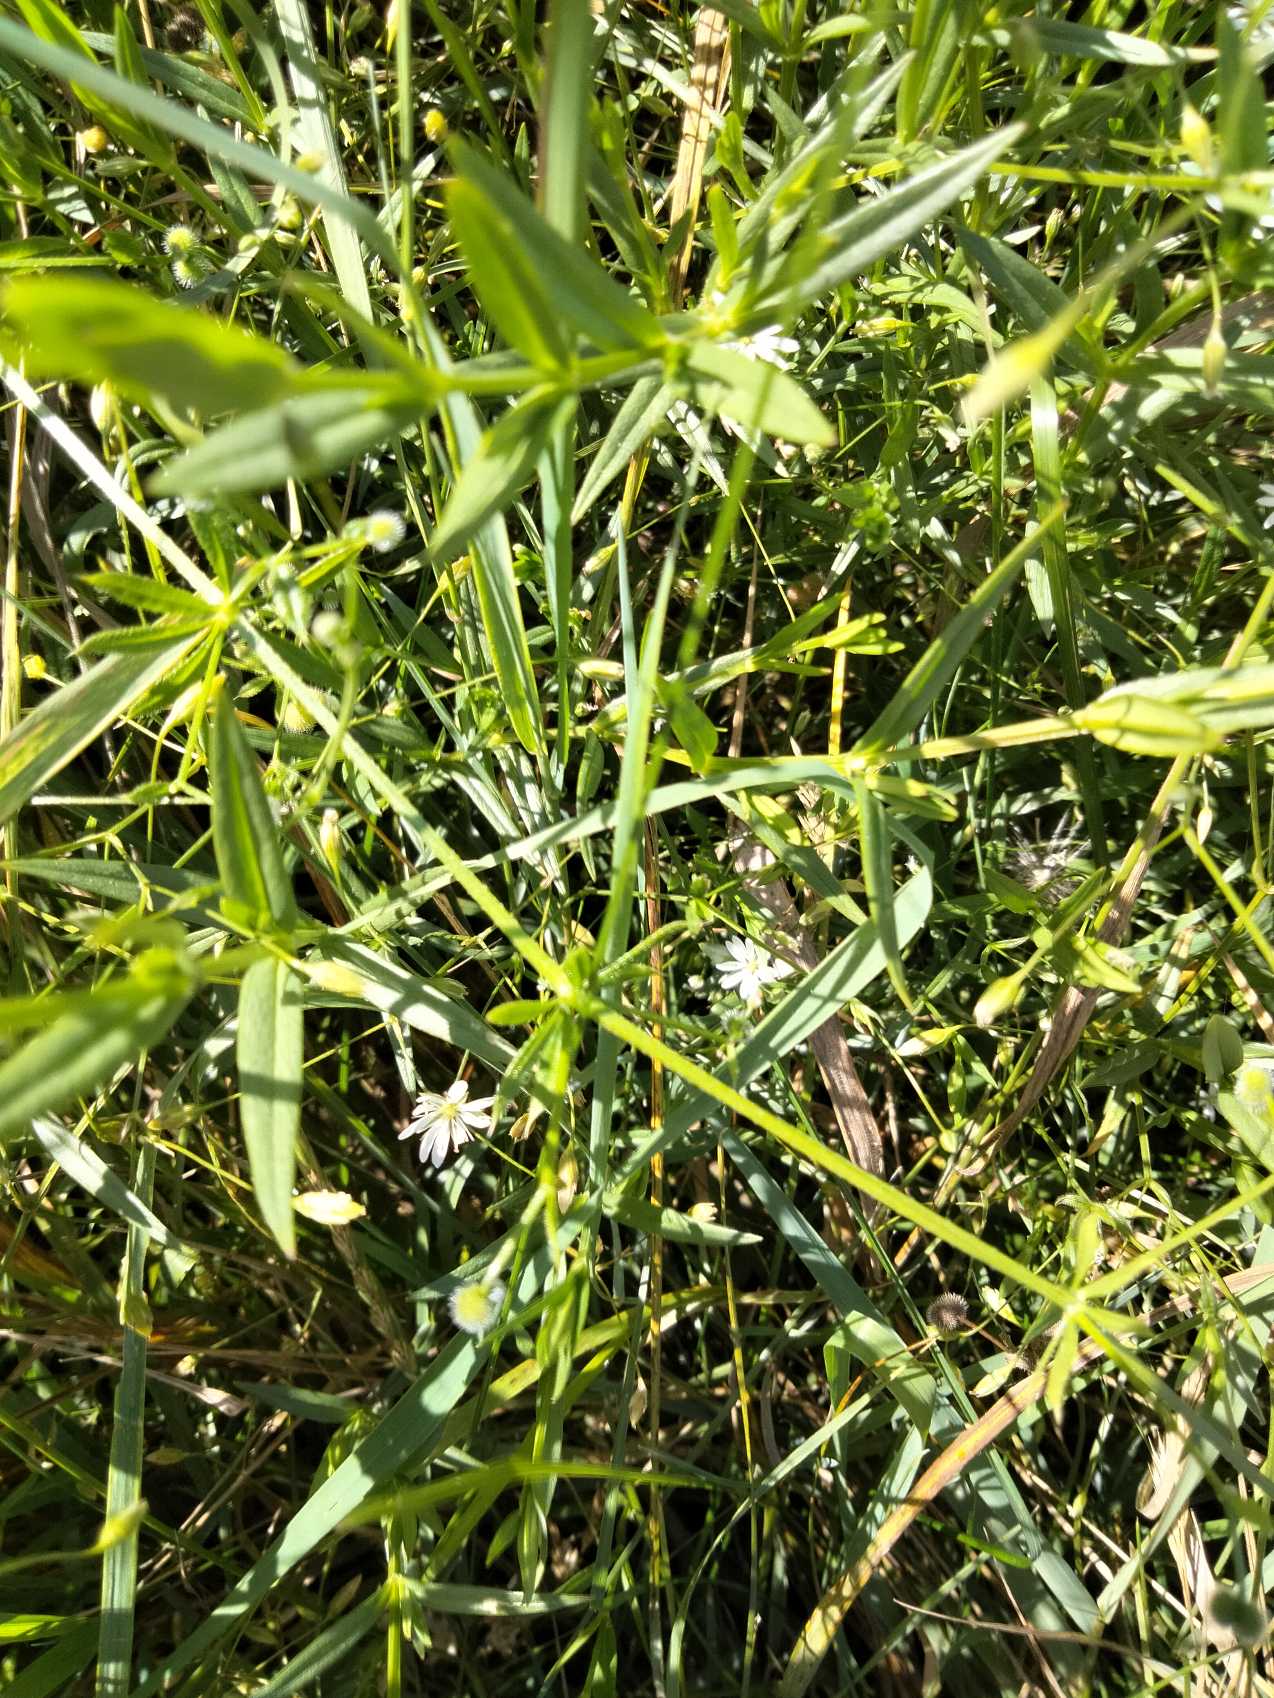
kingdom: Plantae
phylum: Tracheophyta
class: Magnoliopsida
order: Caryophyllales
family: Caryophyllaceae
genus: Stellaria
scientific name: Stellaria graminea
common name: Græsbladet fladstjerne
